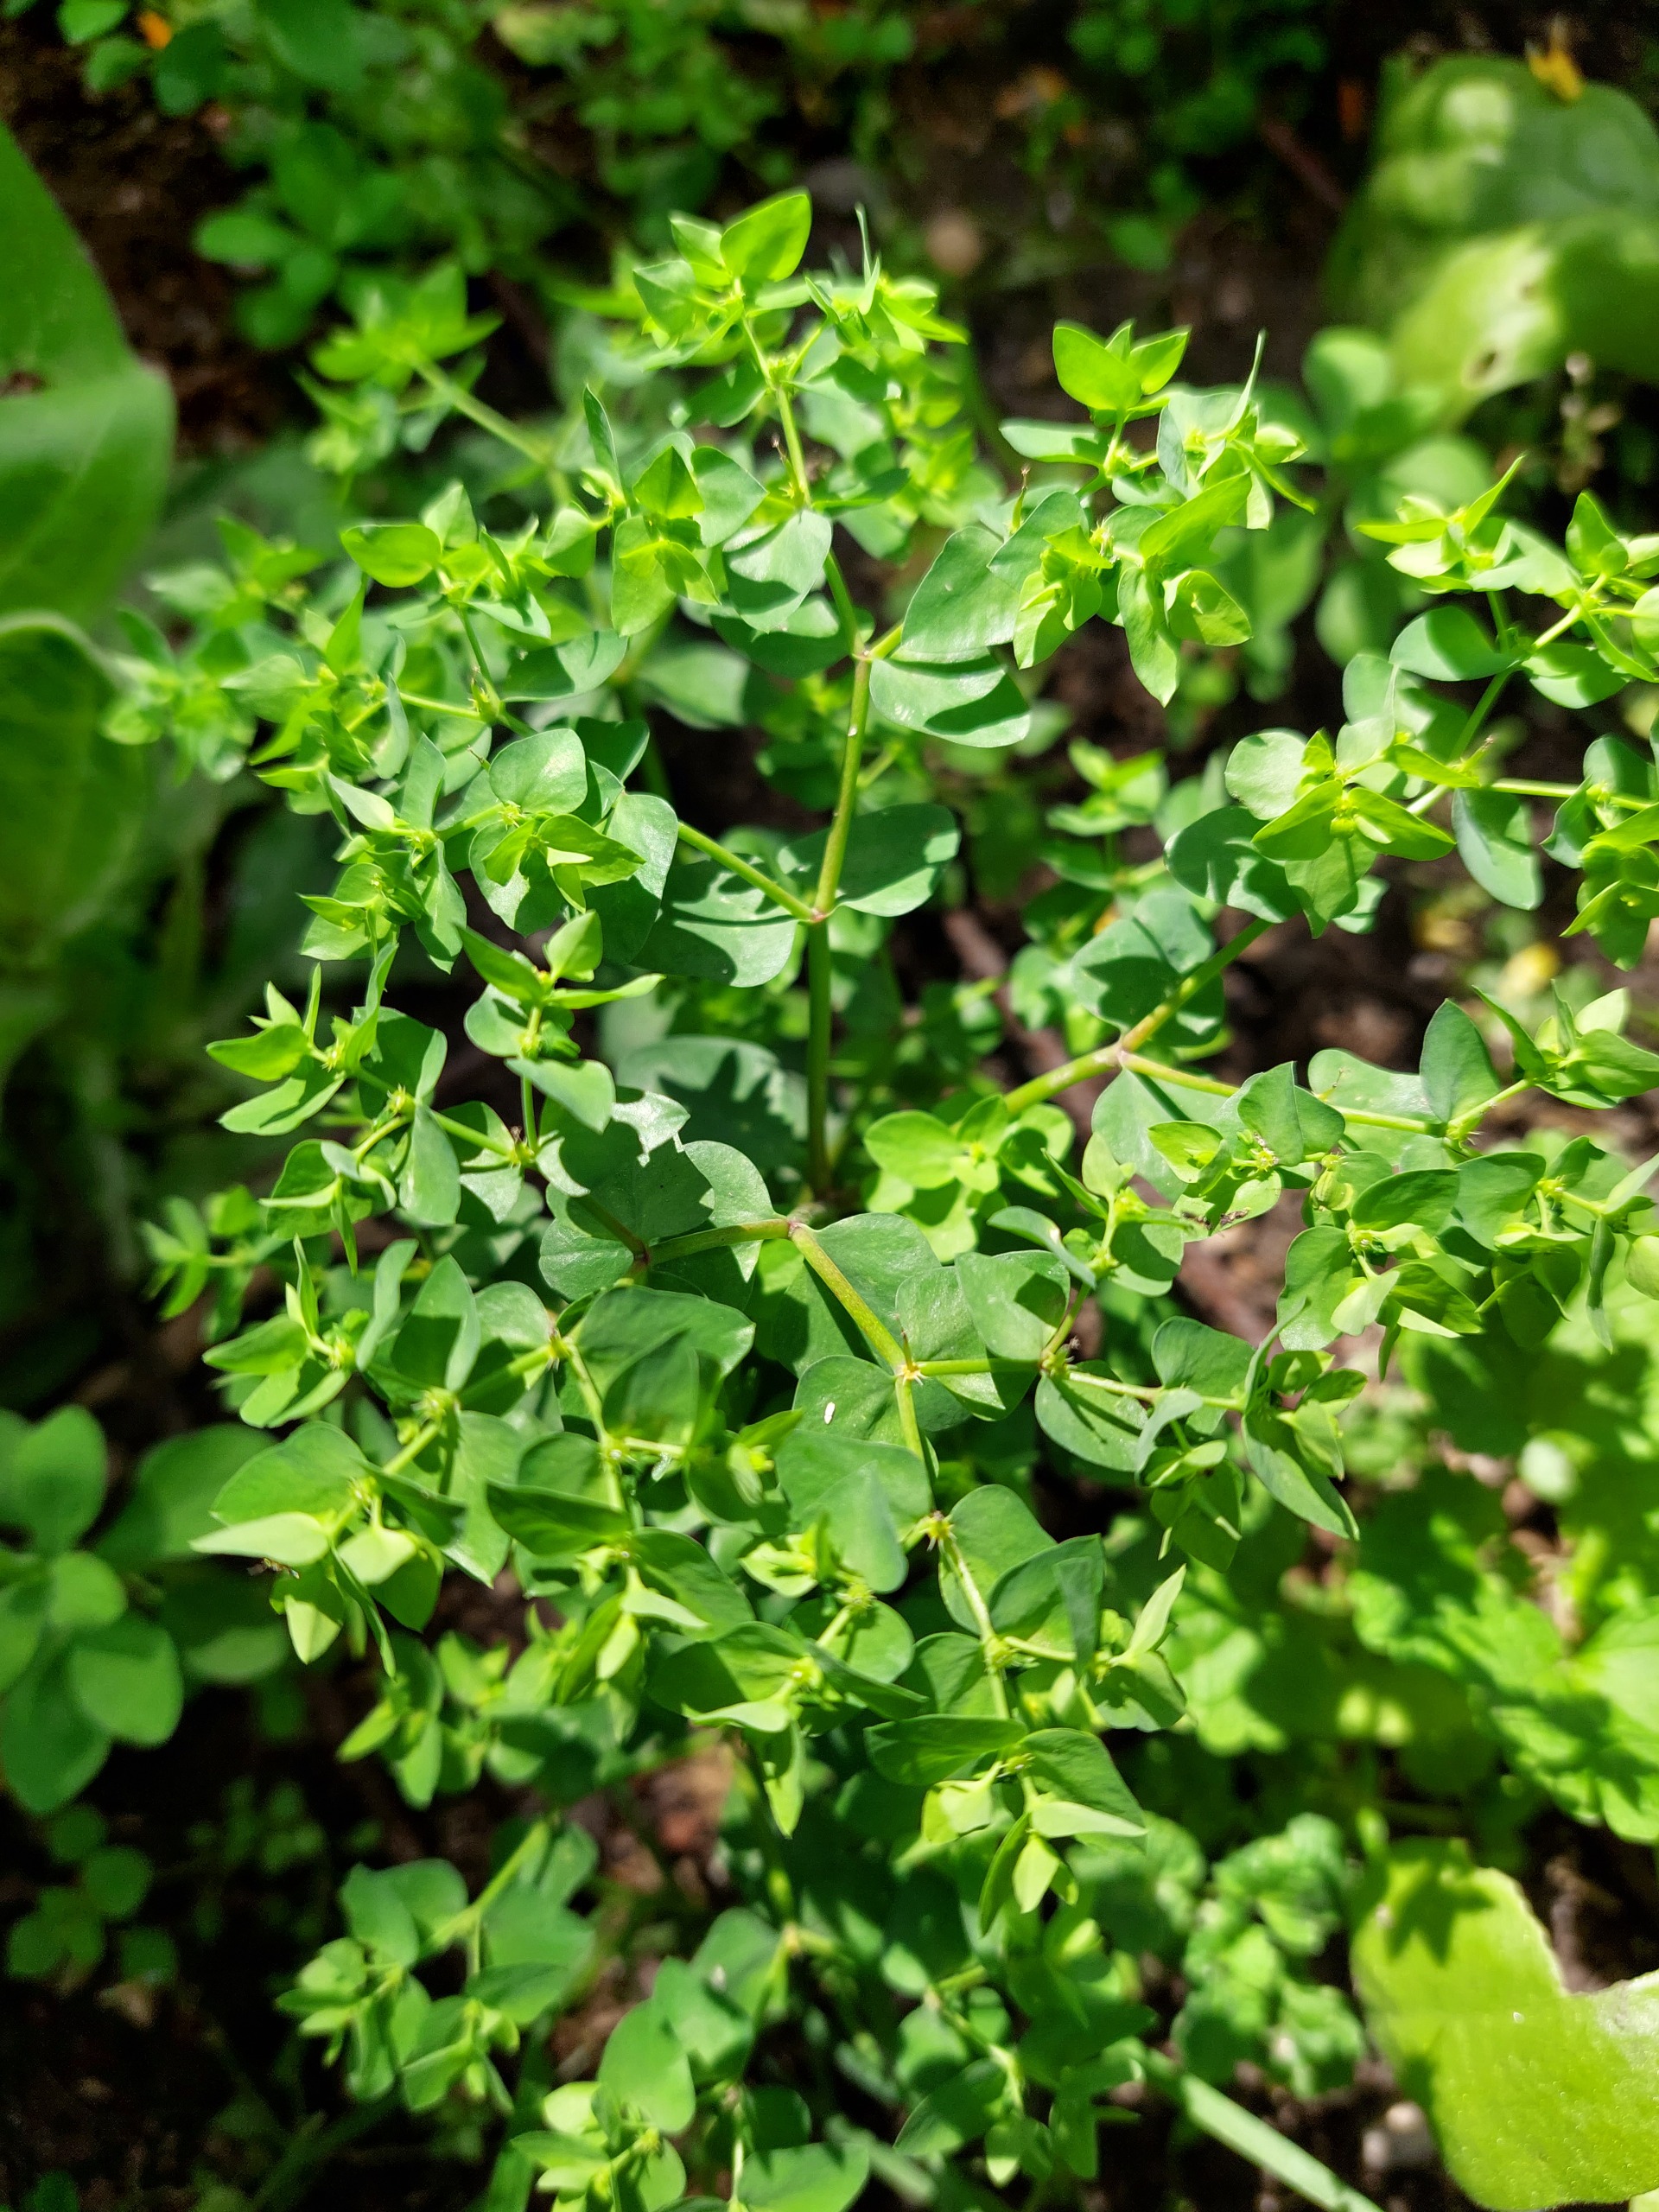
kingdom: Plantae
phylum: Tracheophyta
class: Magnoliopsida
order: Malpighiales
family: Euphorbiaceae
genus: Euphorbia
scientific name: Euphorbia peplus
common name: Gaffel-vortemælk
